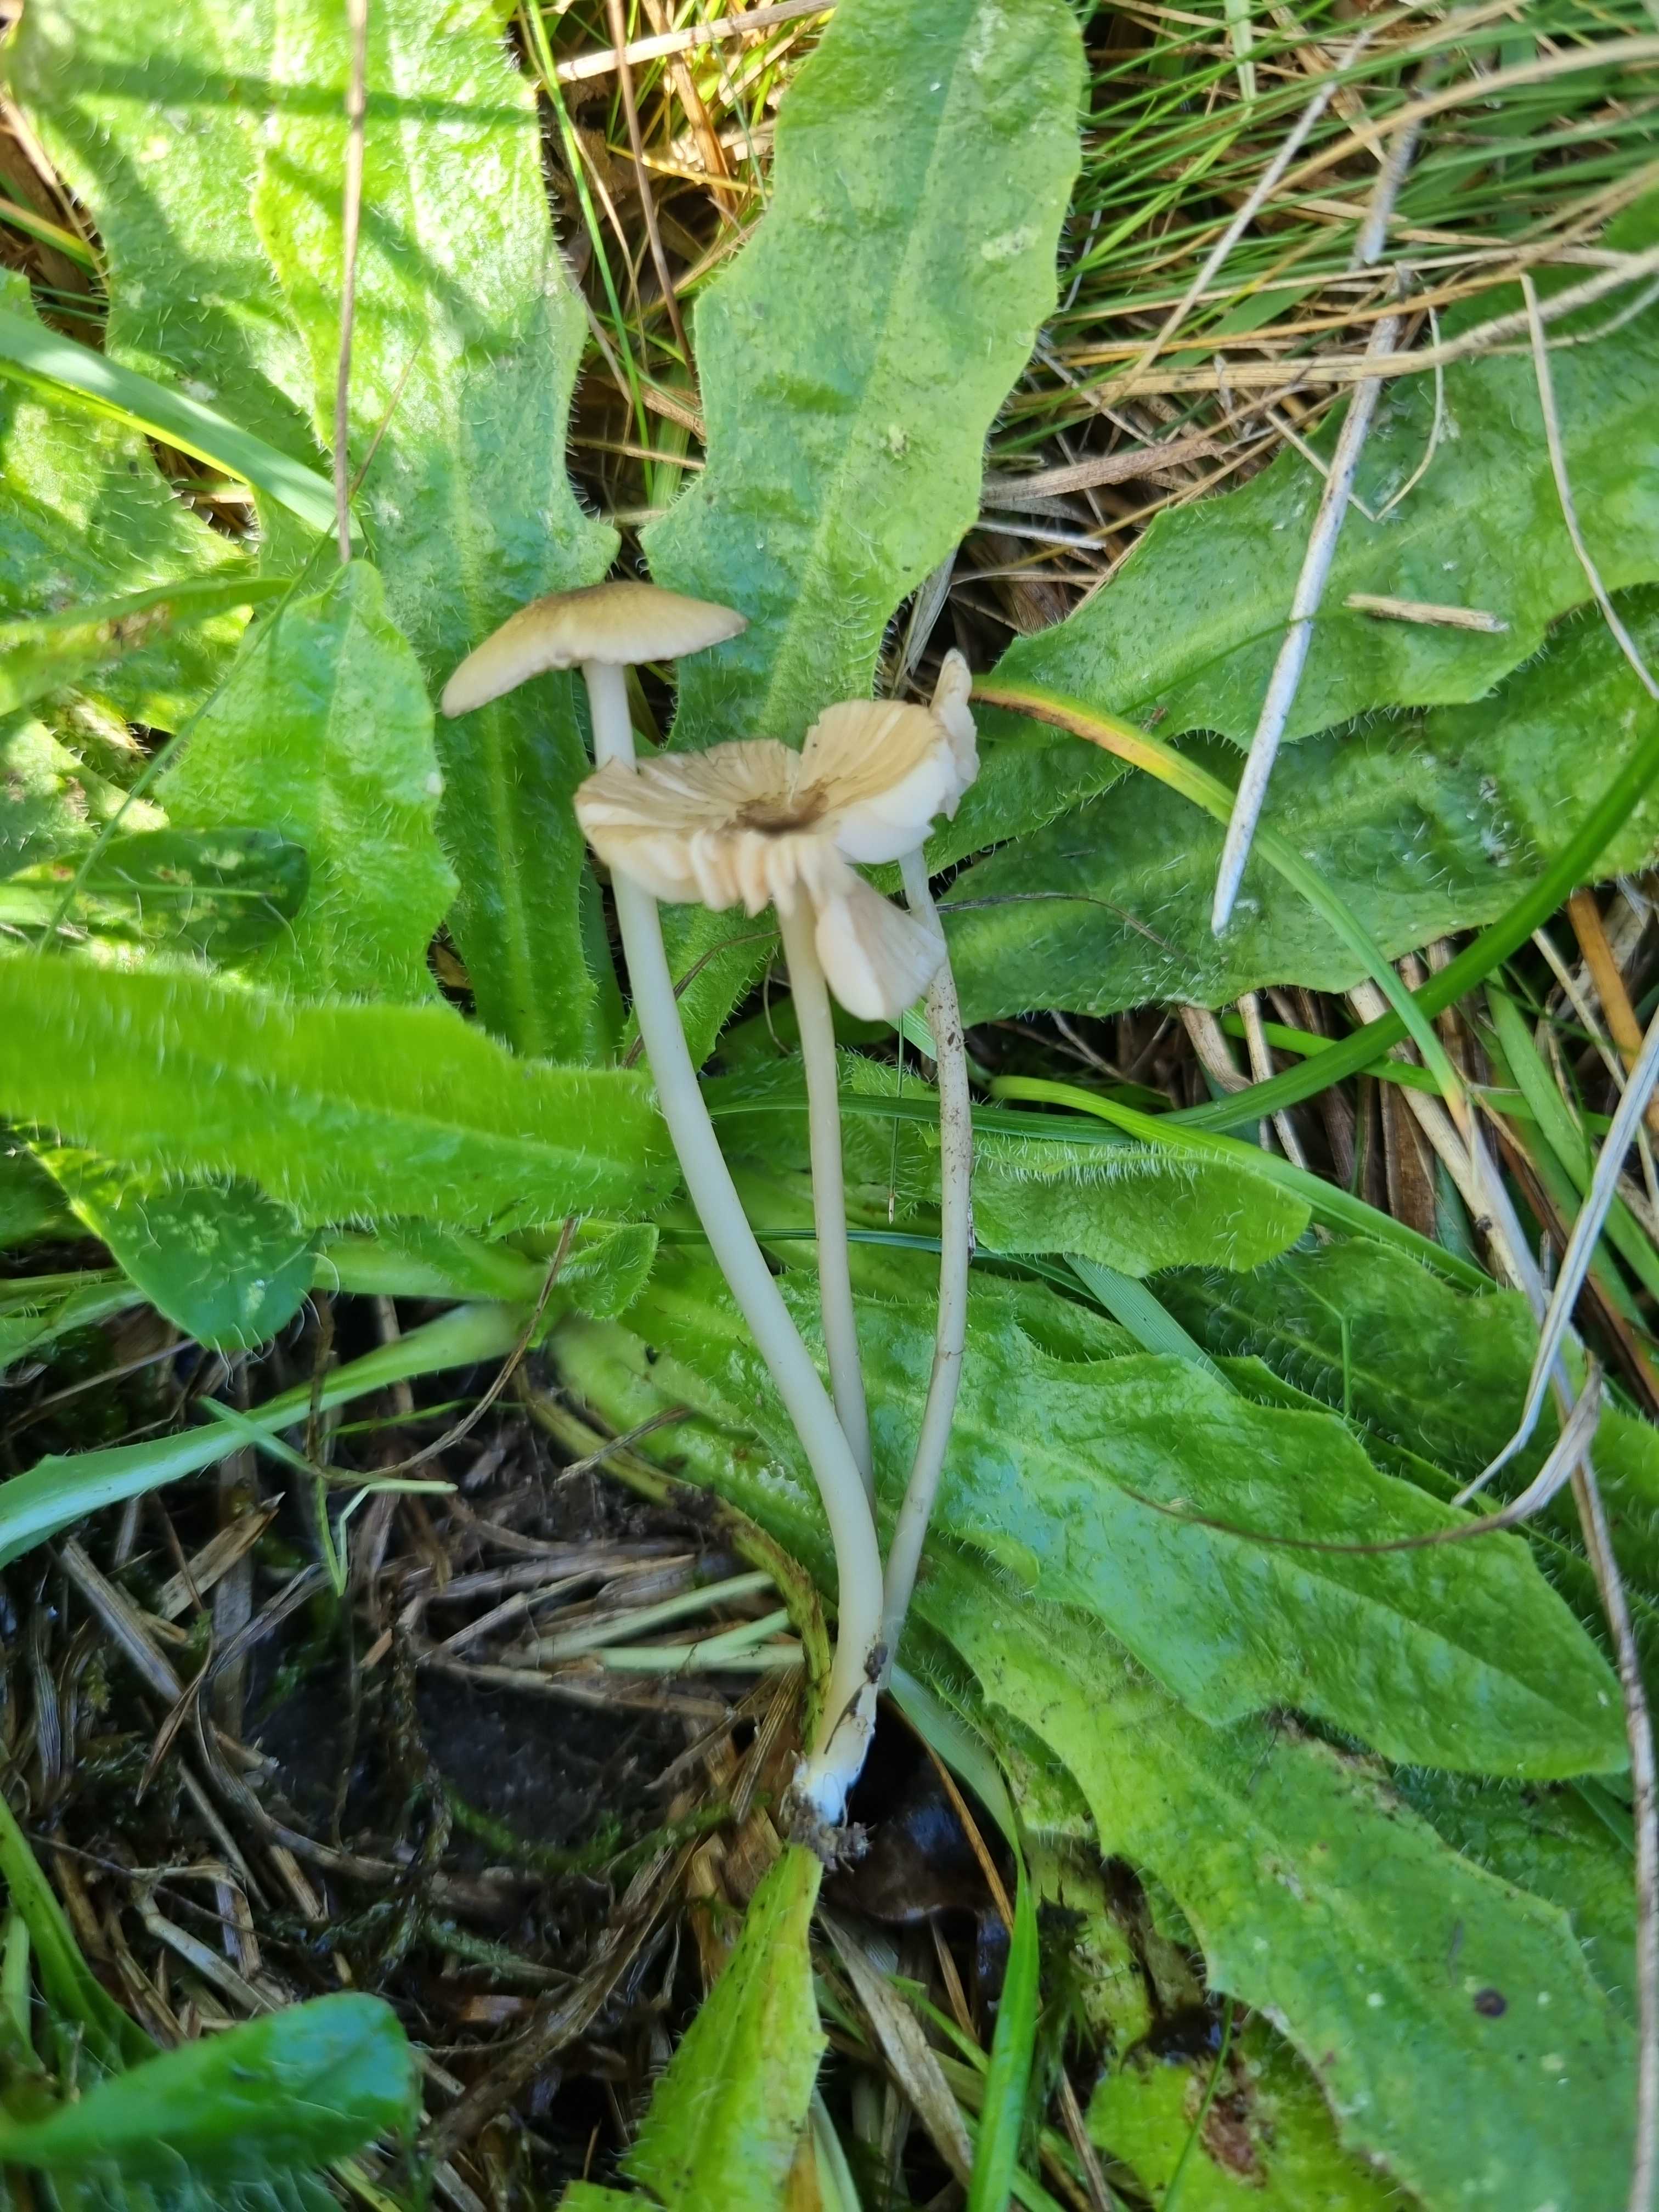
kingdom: Fungi
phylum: Basidiomycota
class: Agaricomycetes
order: Agaricales
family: Entolomataceae
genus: Entoloma
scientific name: Entoloma exile
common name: rødplettet rødblad
